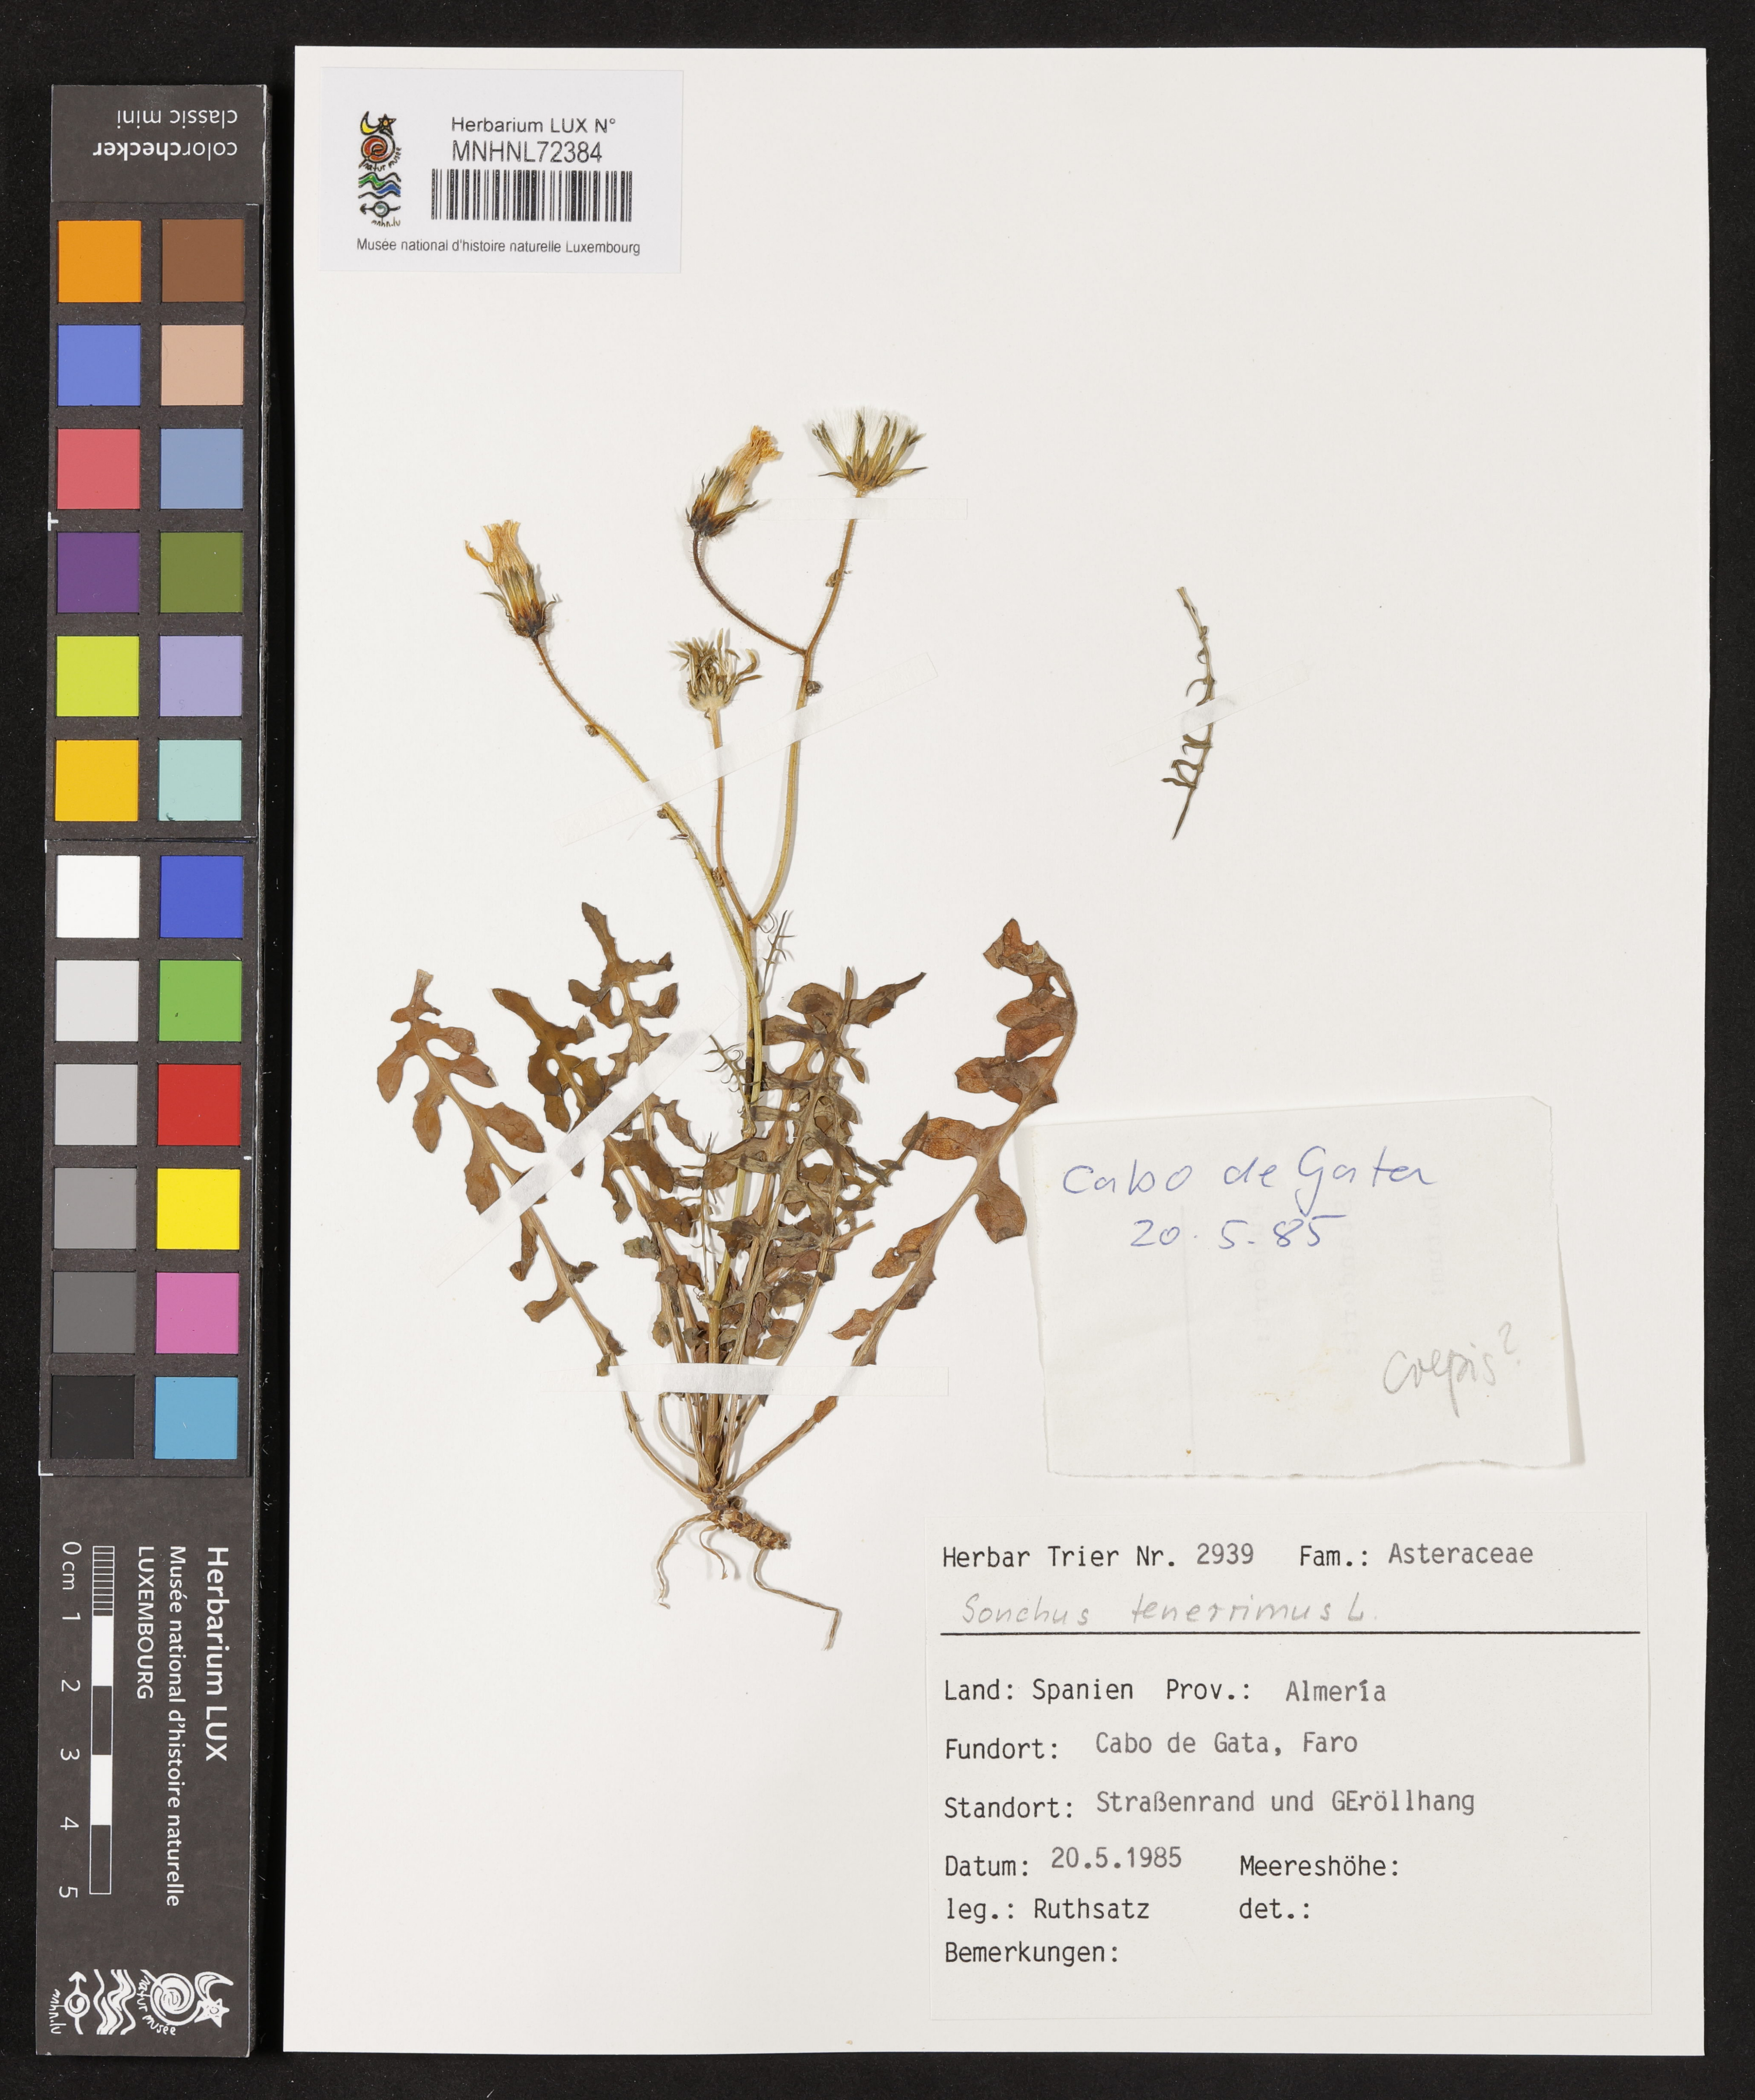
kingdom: Plantae
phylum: Tracheophyta
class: Magnoliopsida
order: Asterales
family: Asteraceae
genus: Sonchus
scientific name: Sonchus tenerrimus
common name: Clammy sowthistle
